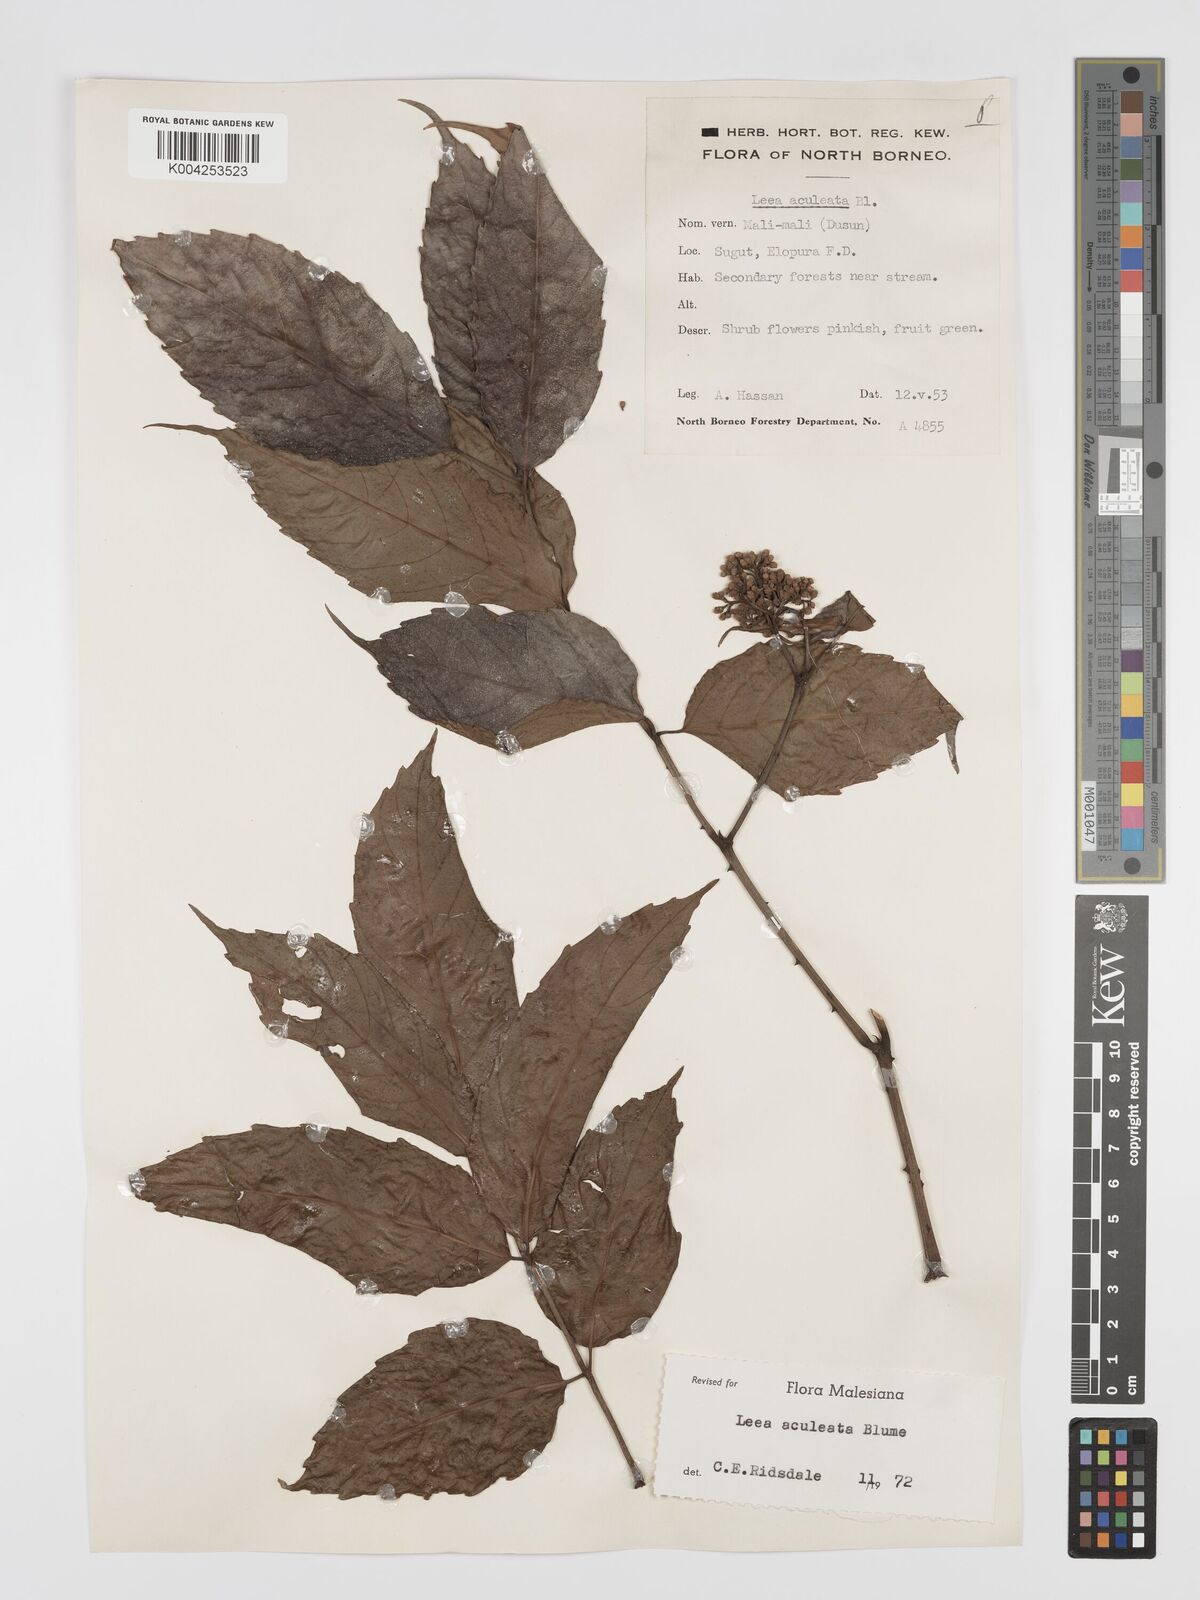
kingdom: Plantae
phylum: Tracheophyta
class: Magnoliopsida
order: Vitales
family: Vitaceae
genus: Leea
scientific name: Leea aculeata
